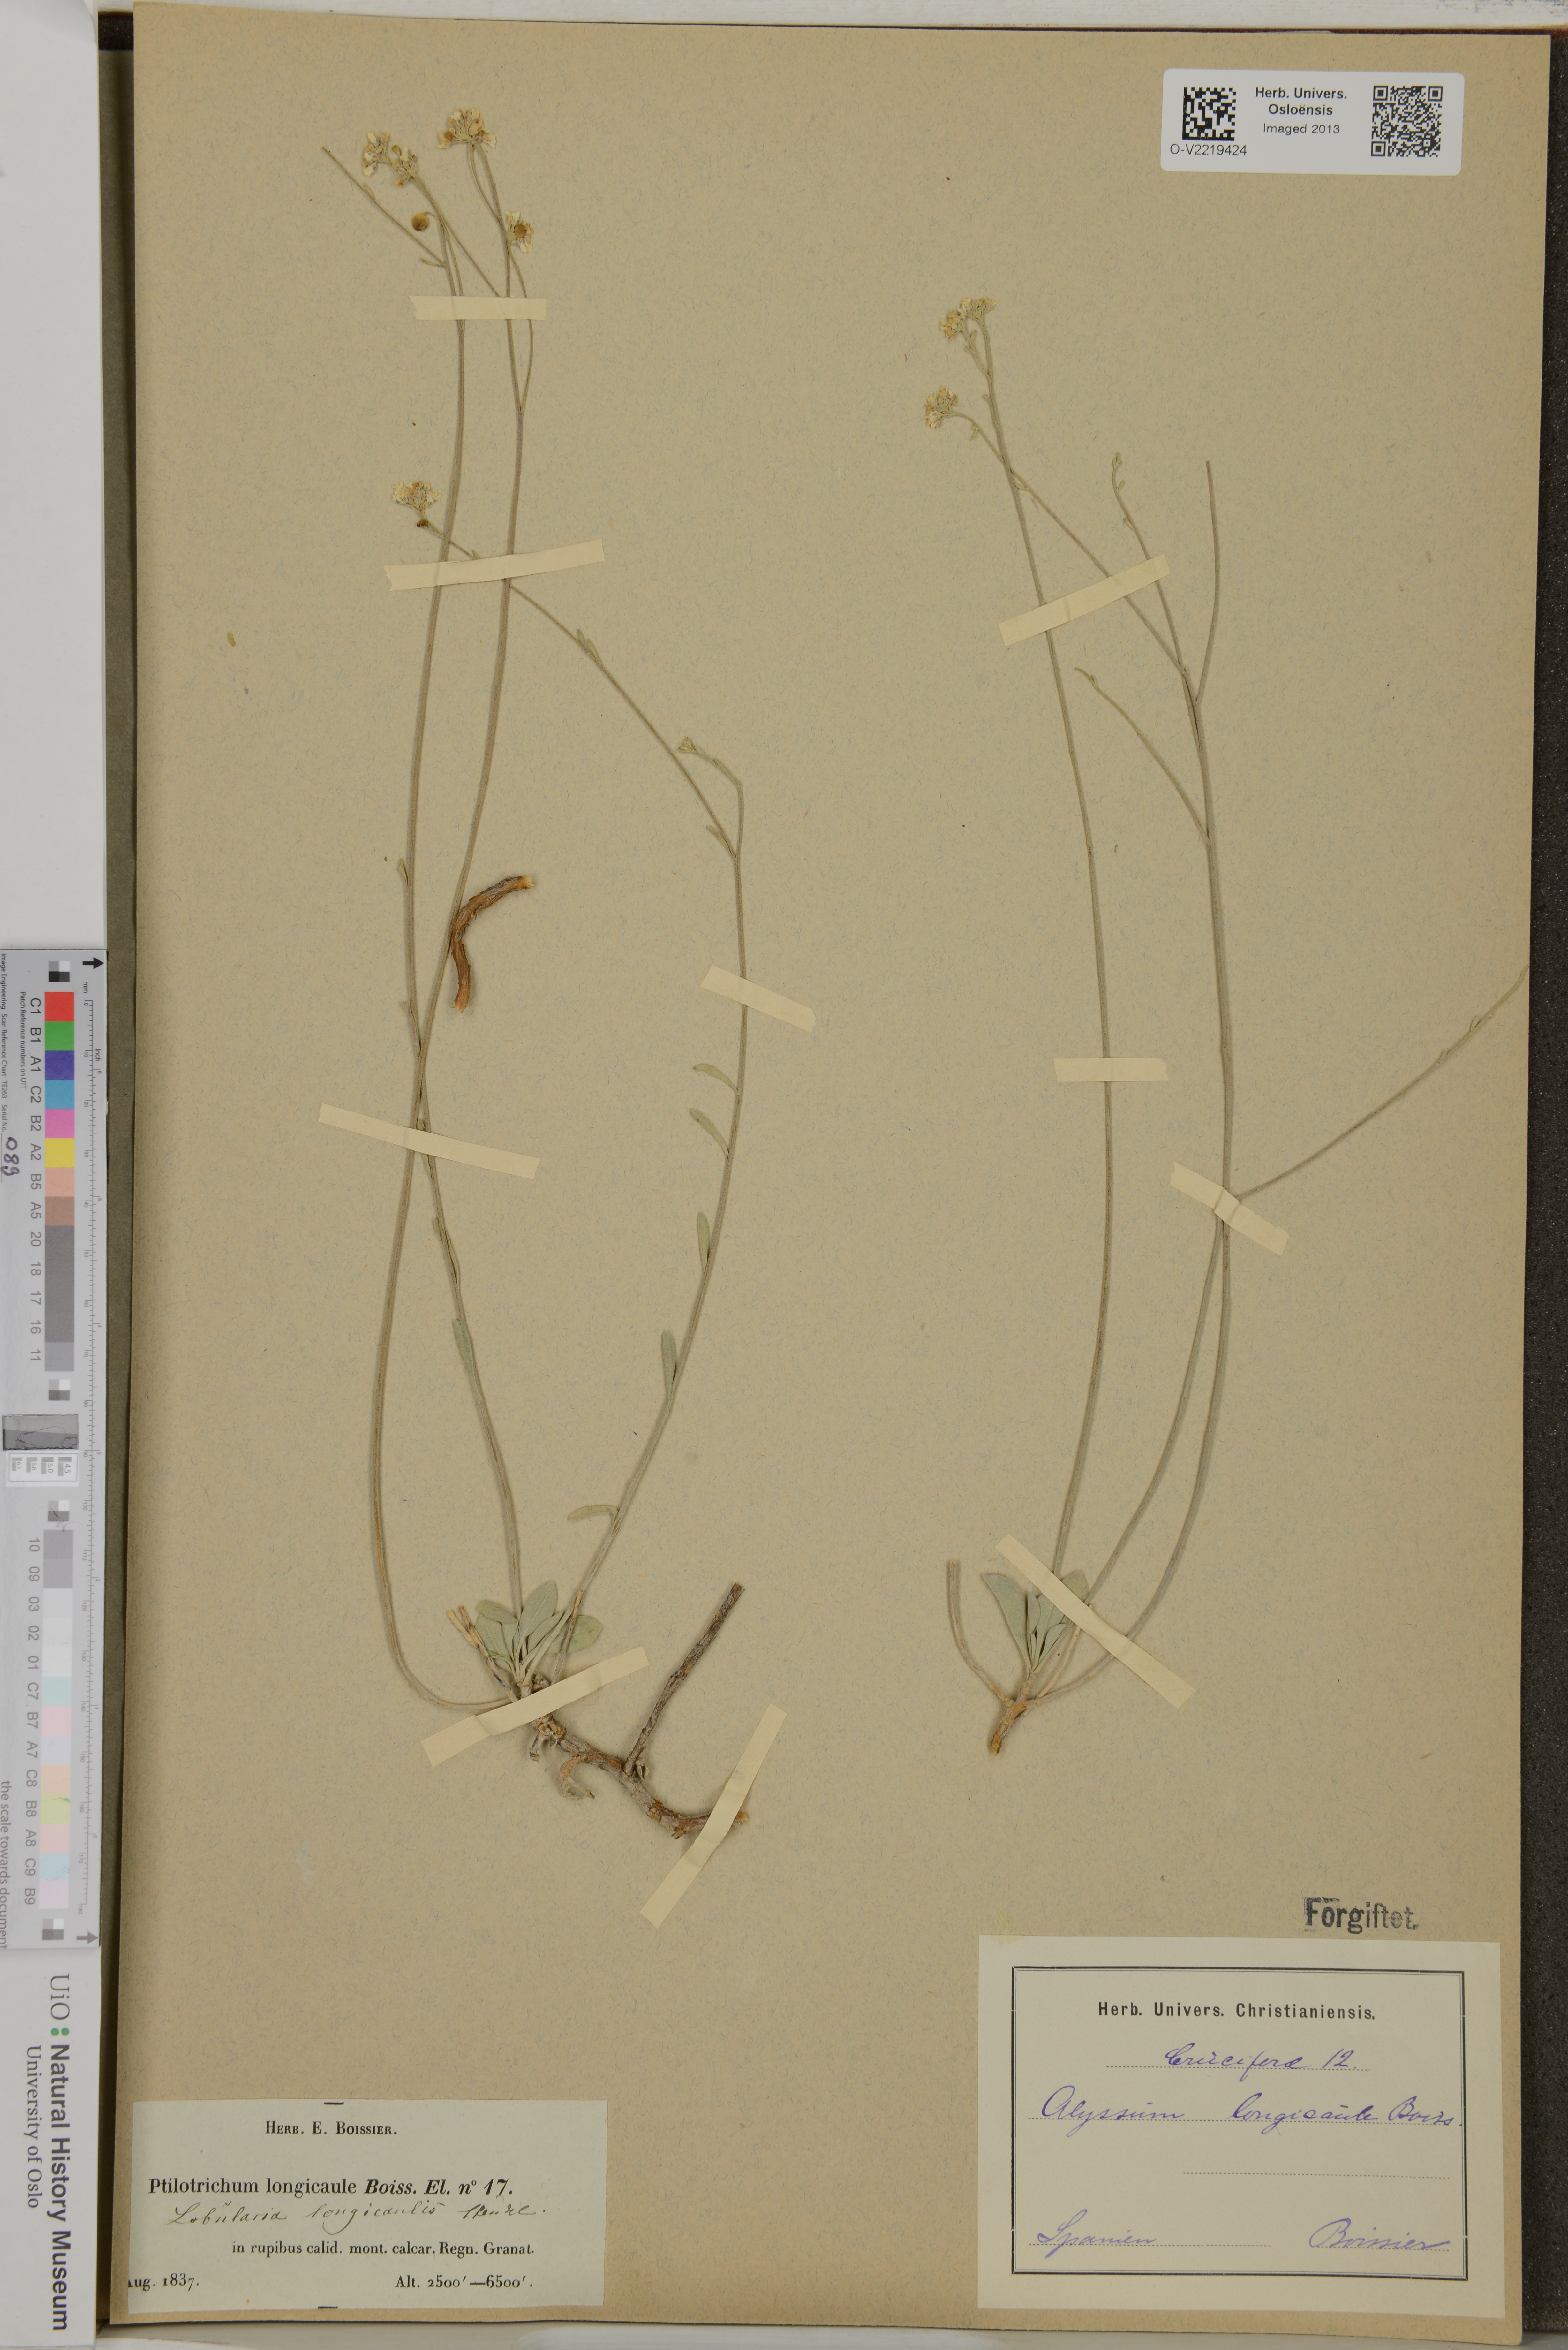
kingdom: Plantae
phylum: Tracheophyta
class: Magnoliopsida
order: Brassicales
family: Brassicaceae
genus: Hormathophylla
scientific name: Hormathophylla longicaulis
